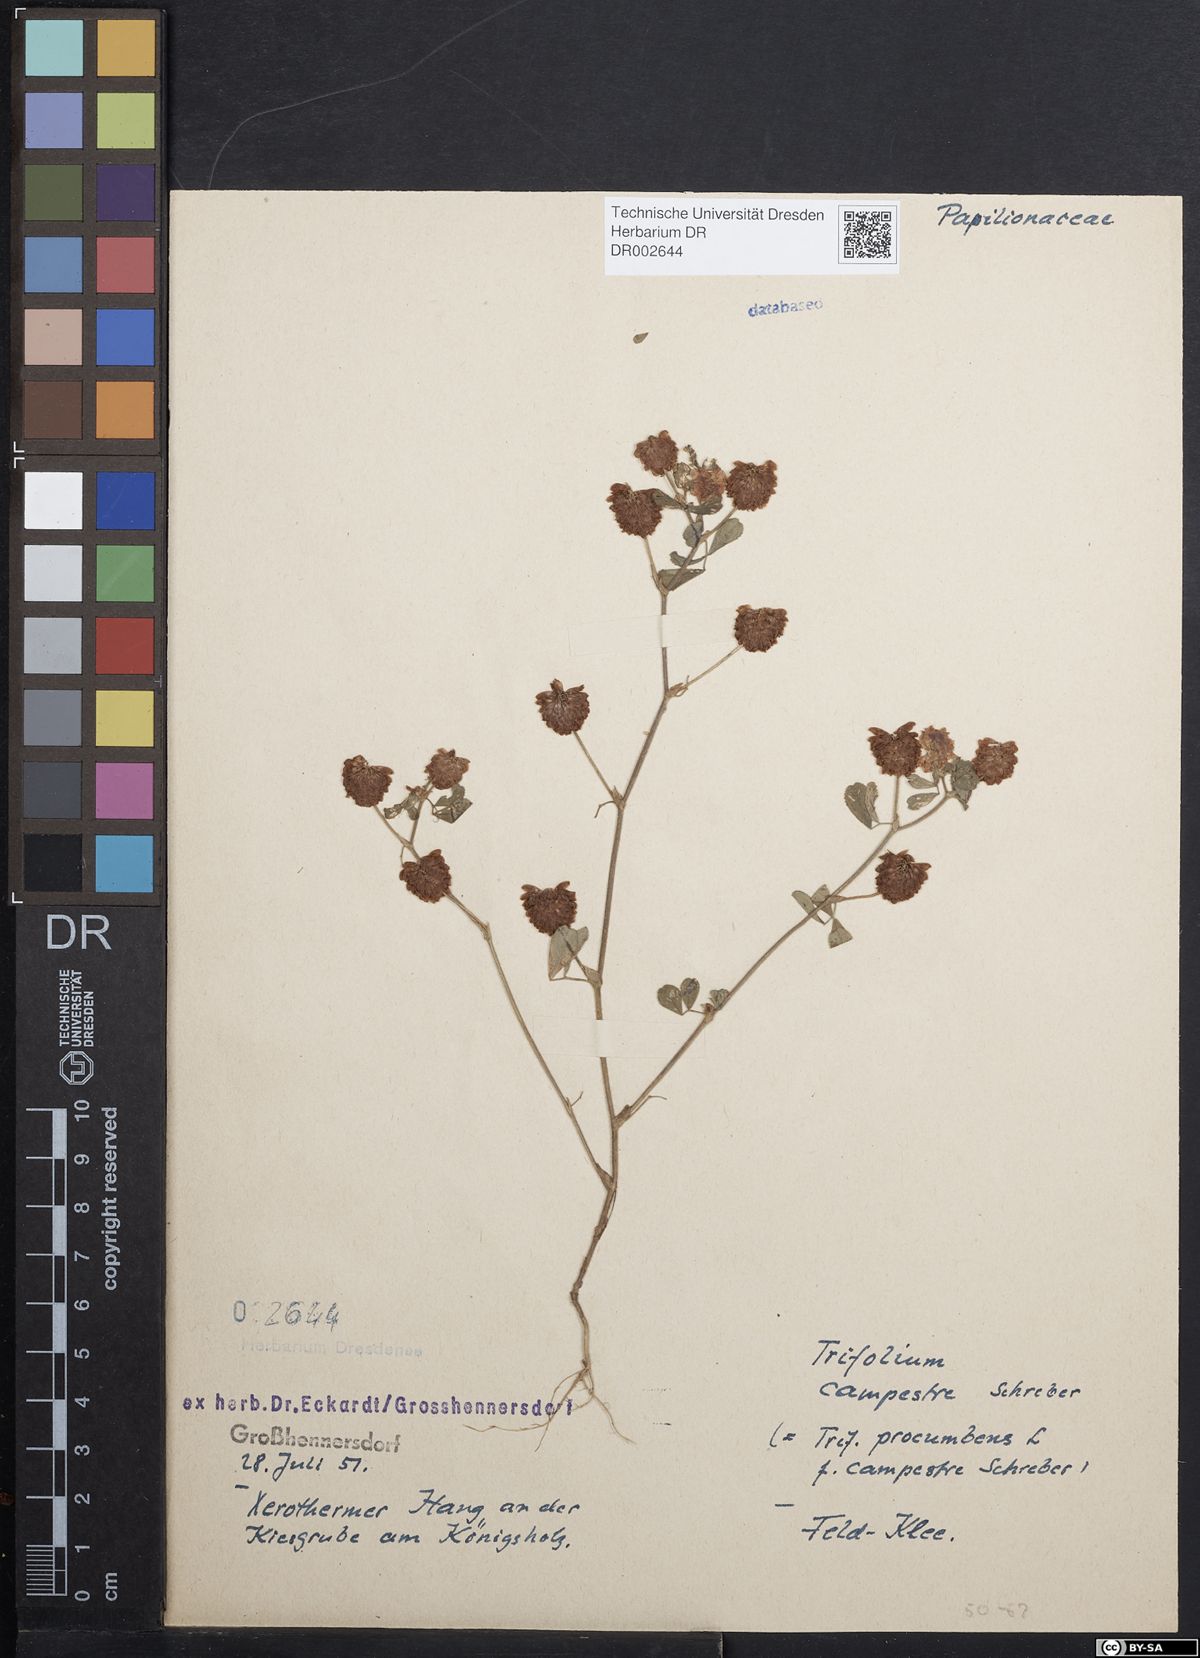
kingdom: Plantae
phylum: Tracheophyta
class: Magnoliopsida
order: Fabales
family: Fabaceae
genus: Trifolium
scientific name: Trifolium campestre
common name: Field clover
